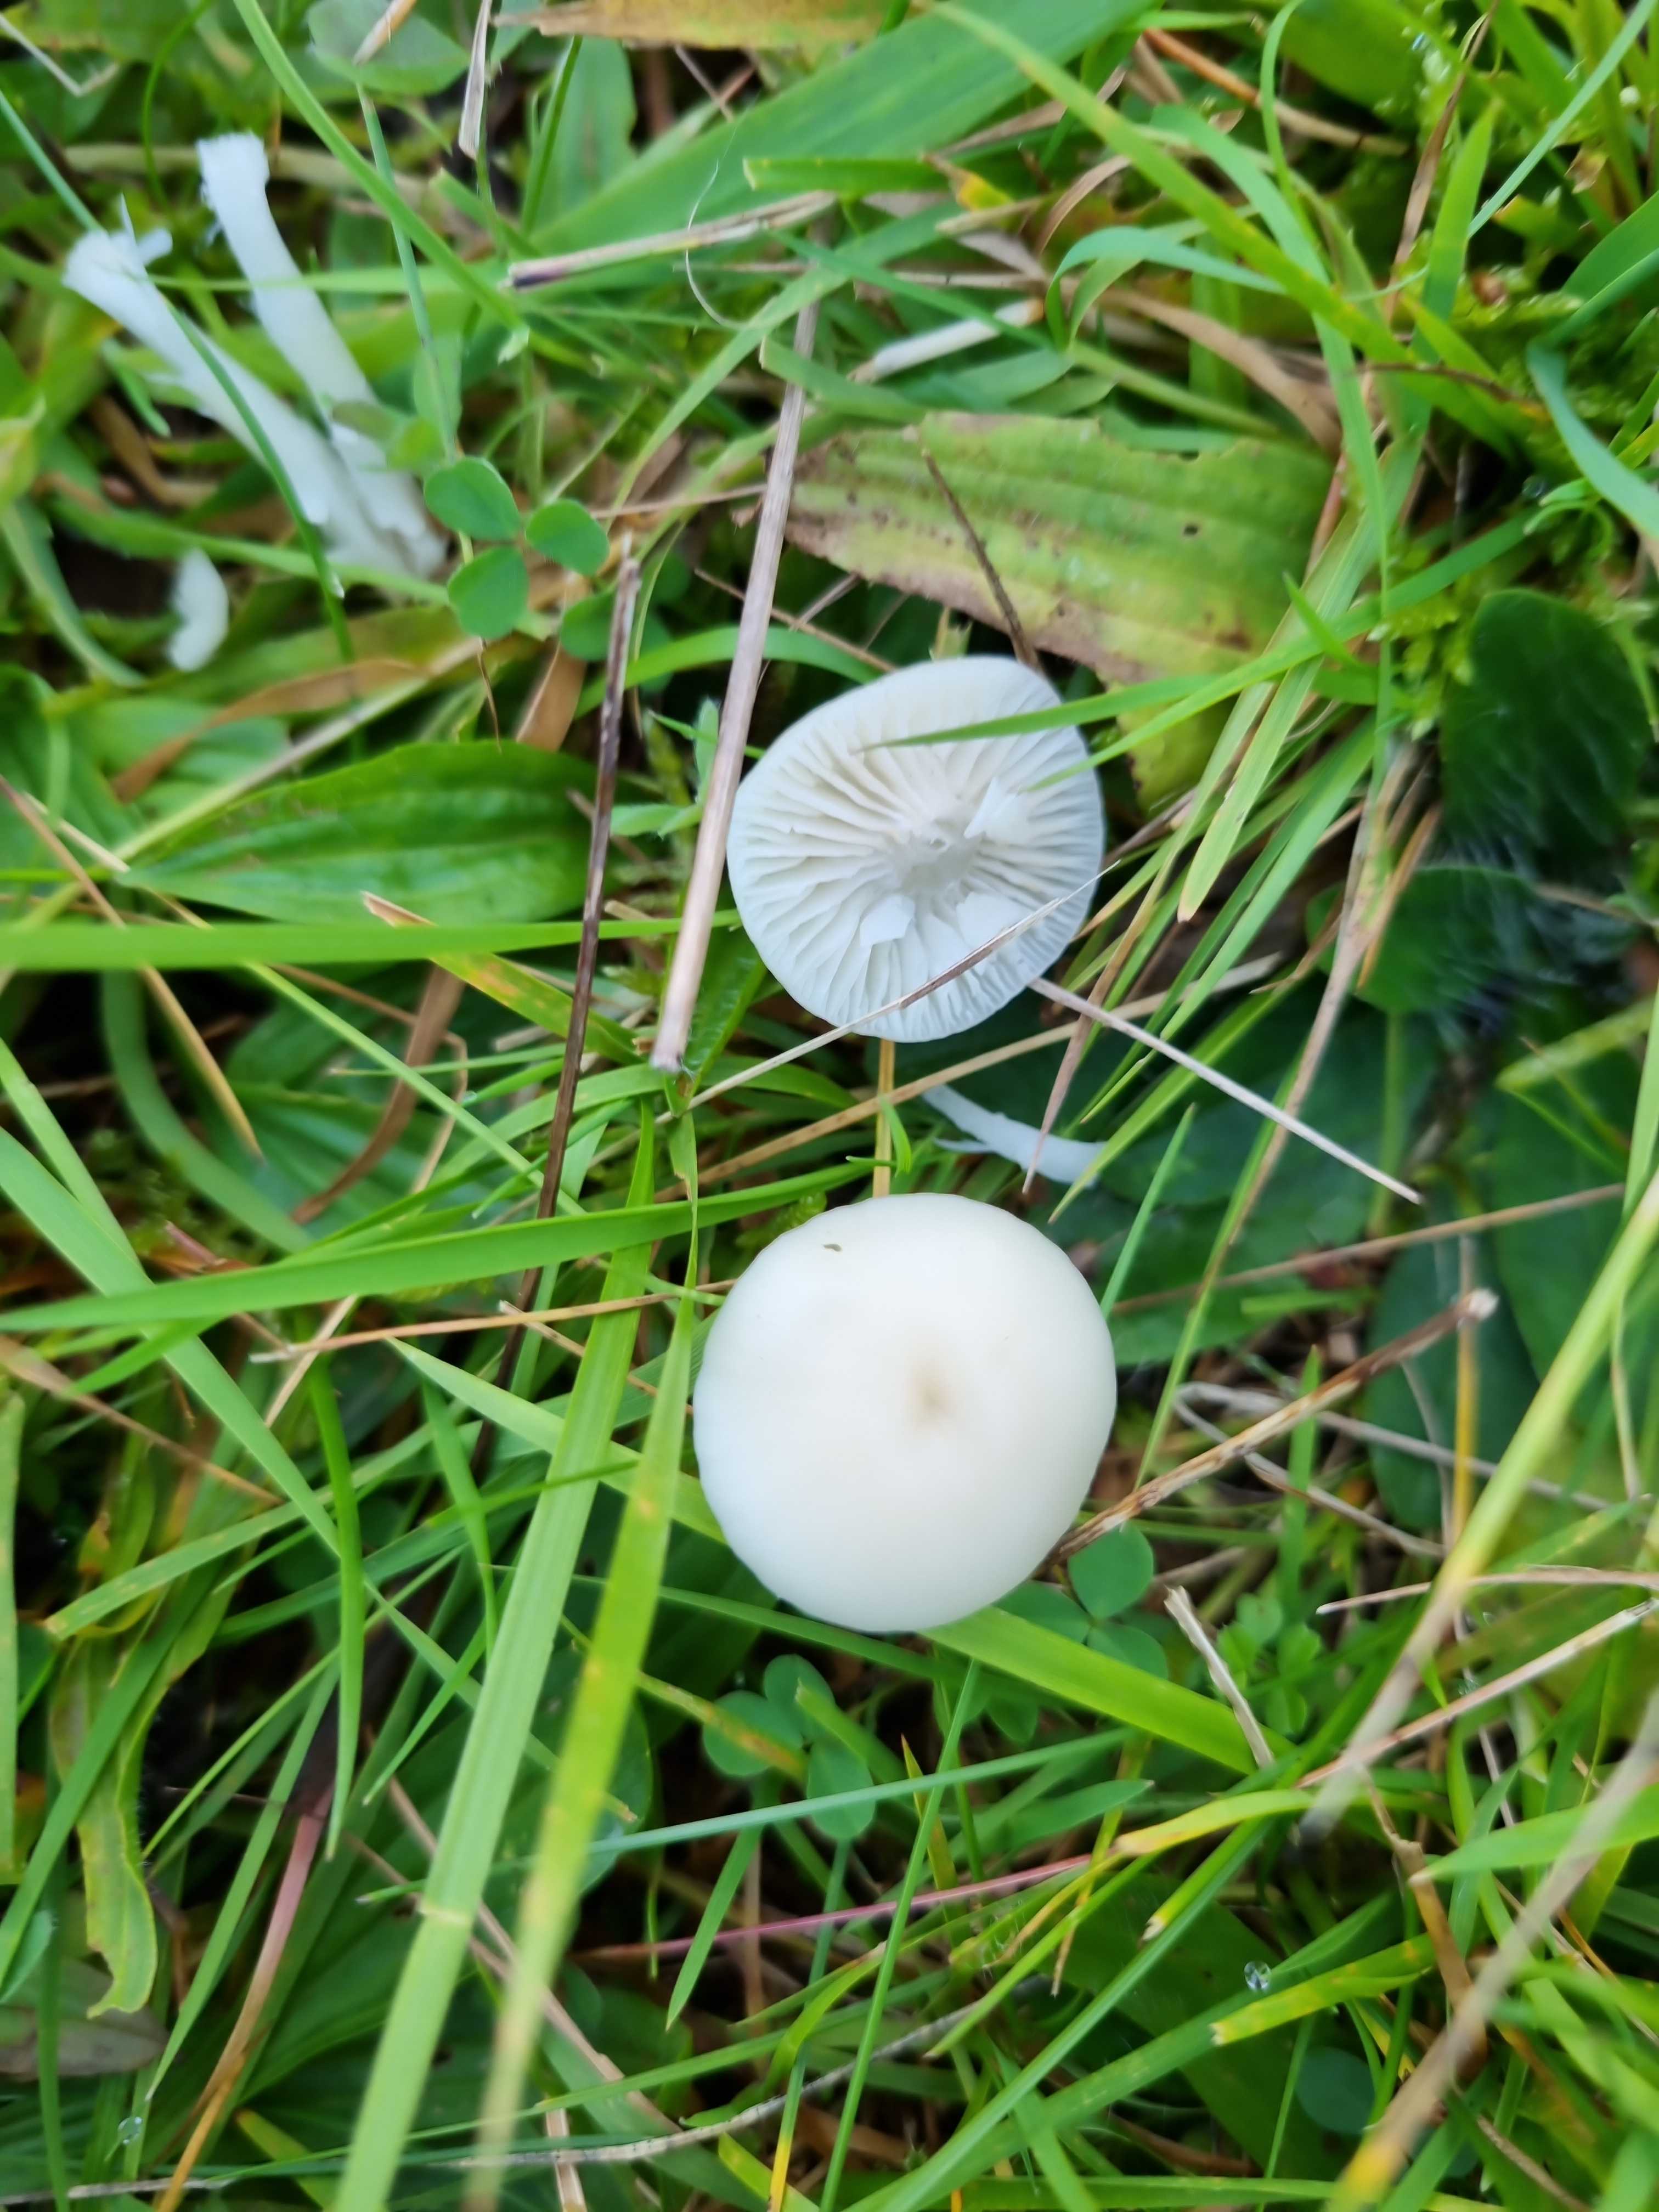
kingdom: Fungi
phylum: Basidiomycota
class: Agaricomycetes
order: Agaricales
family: Hygrophoraceae
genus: Cuphophyllus
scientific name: Cuphophyllus virgineus
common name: snehvid vokshat
